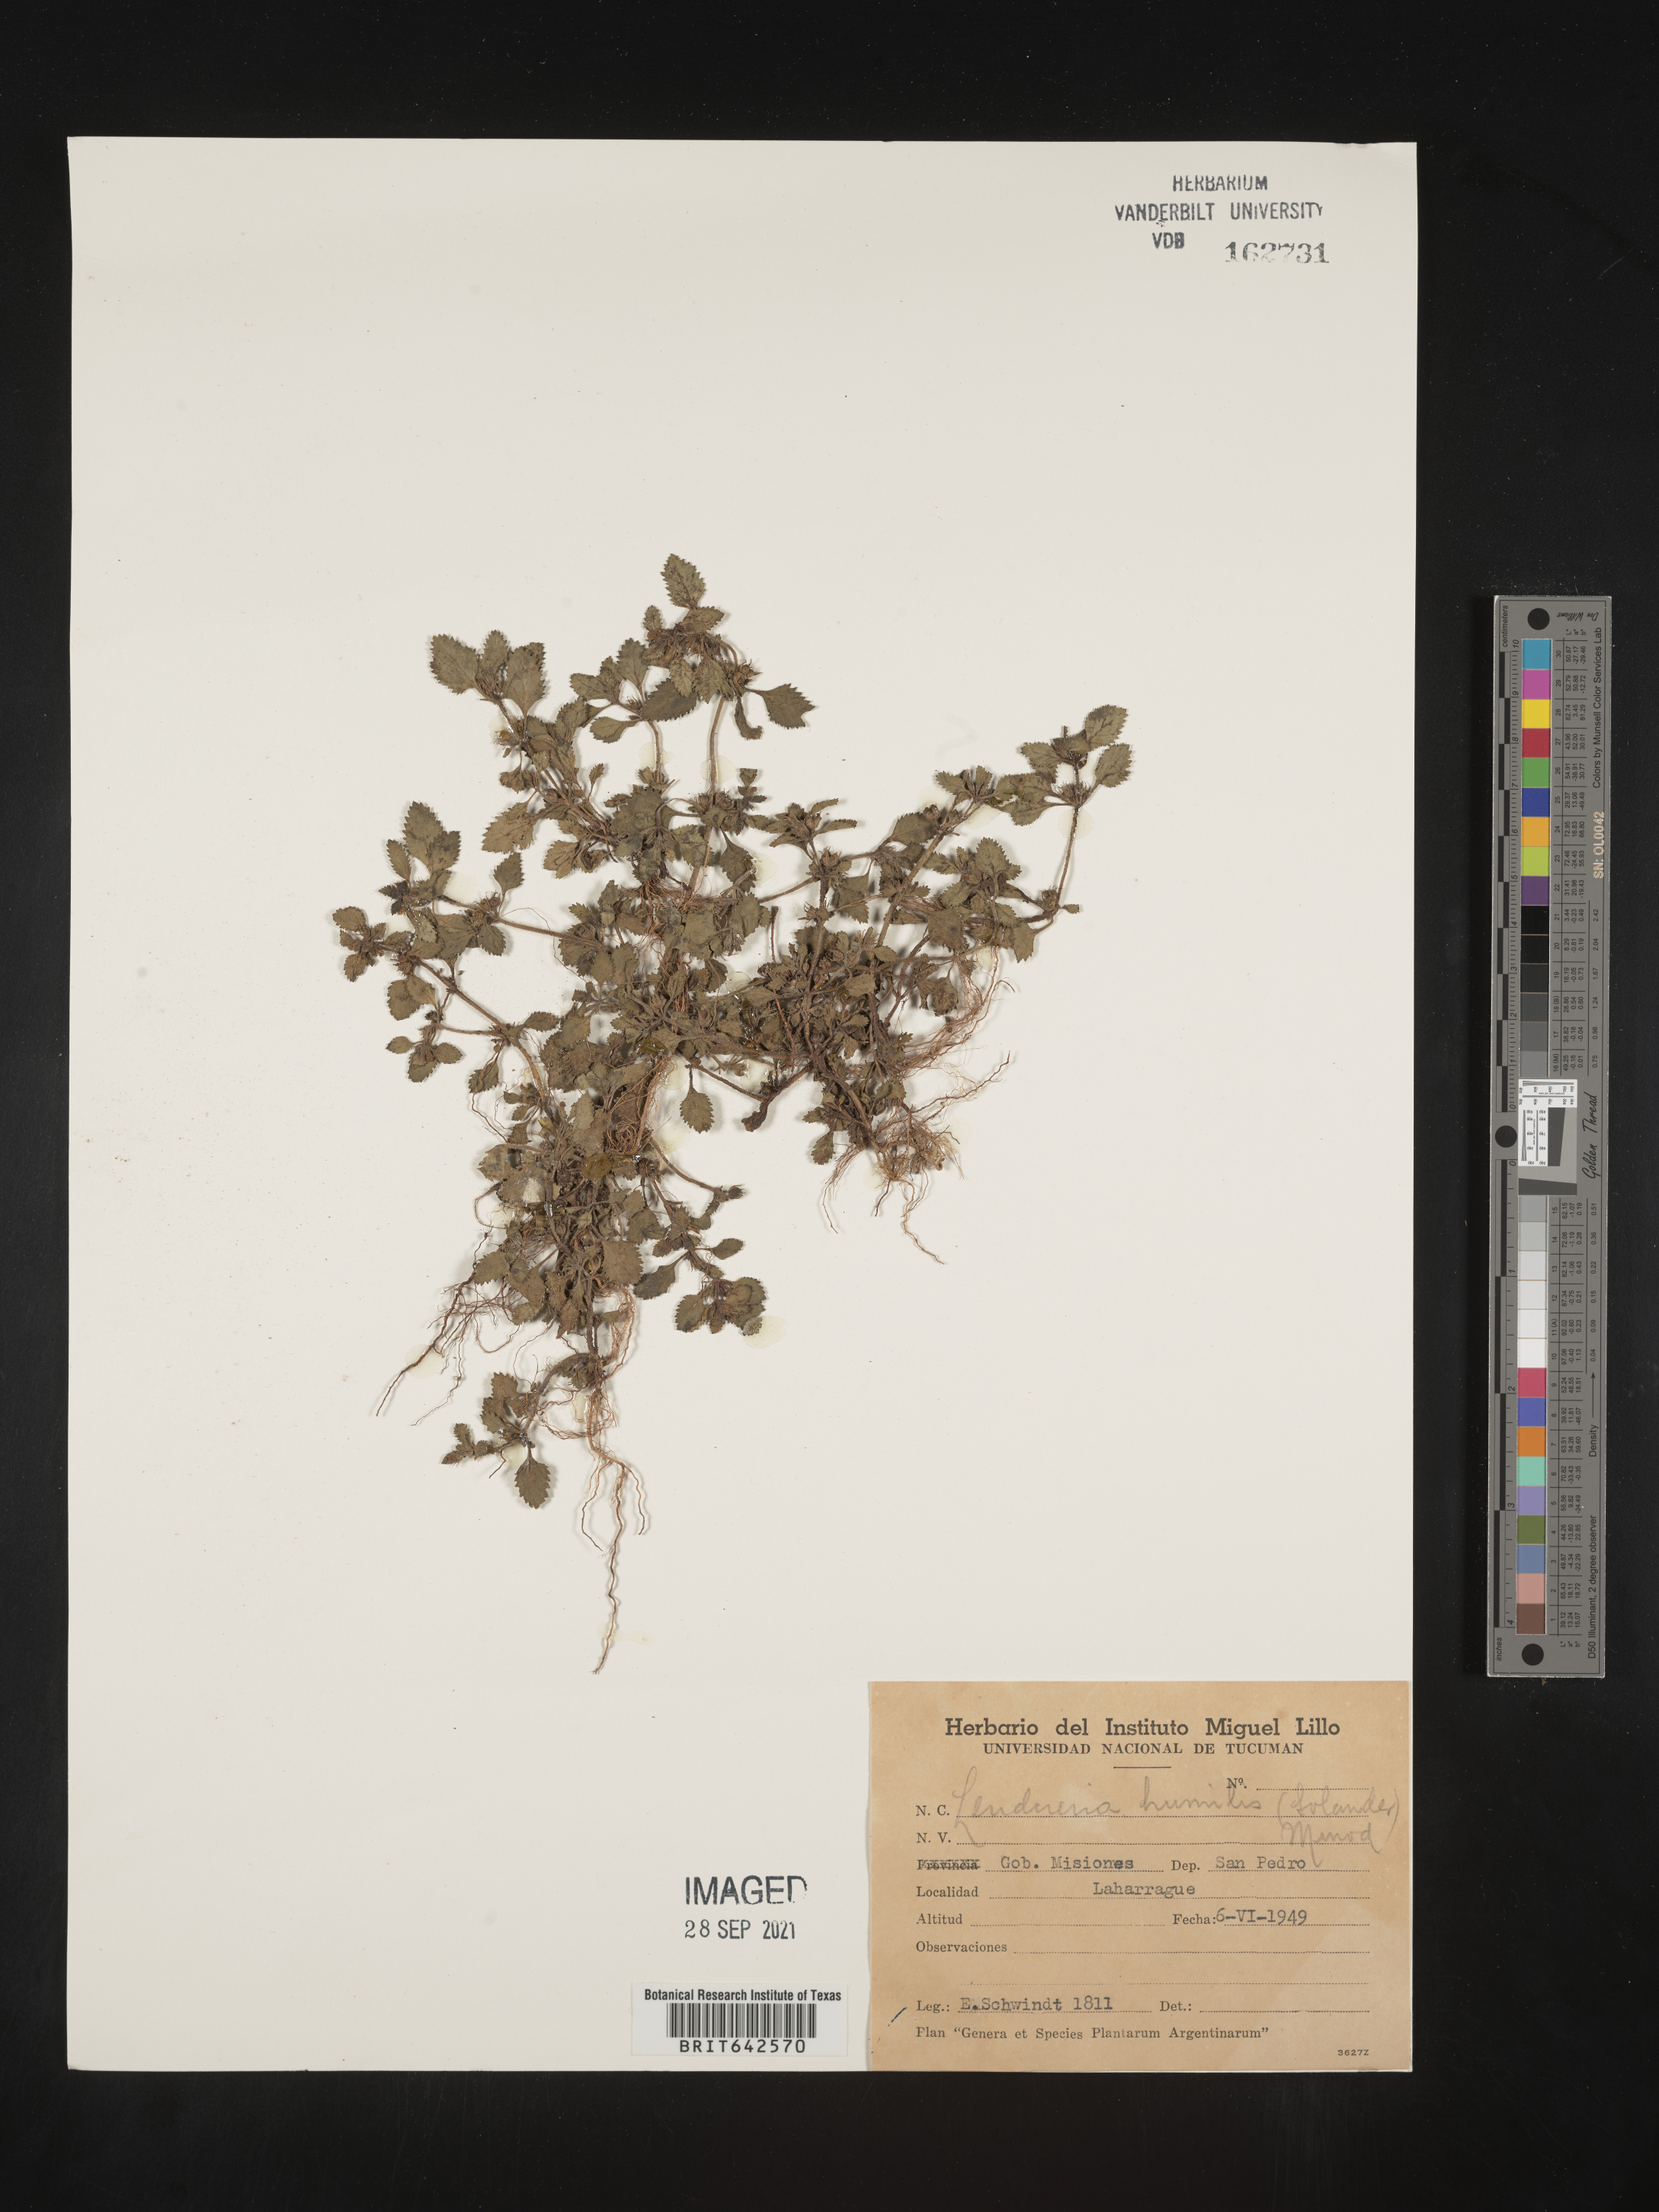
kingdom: Plantae
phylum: Tracheophyta
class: Magnoliopsida
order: Lamiales
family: Linderniaceae
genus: Lindernia
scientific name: Lindernia
